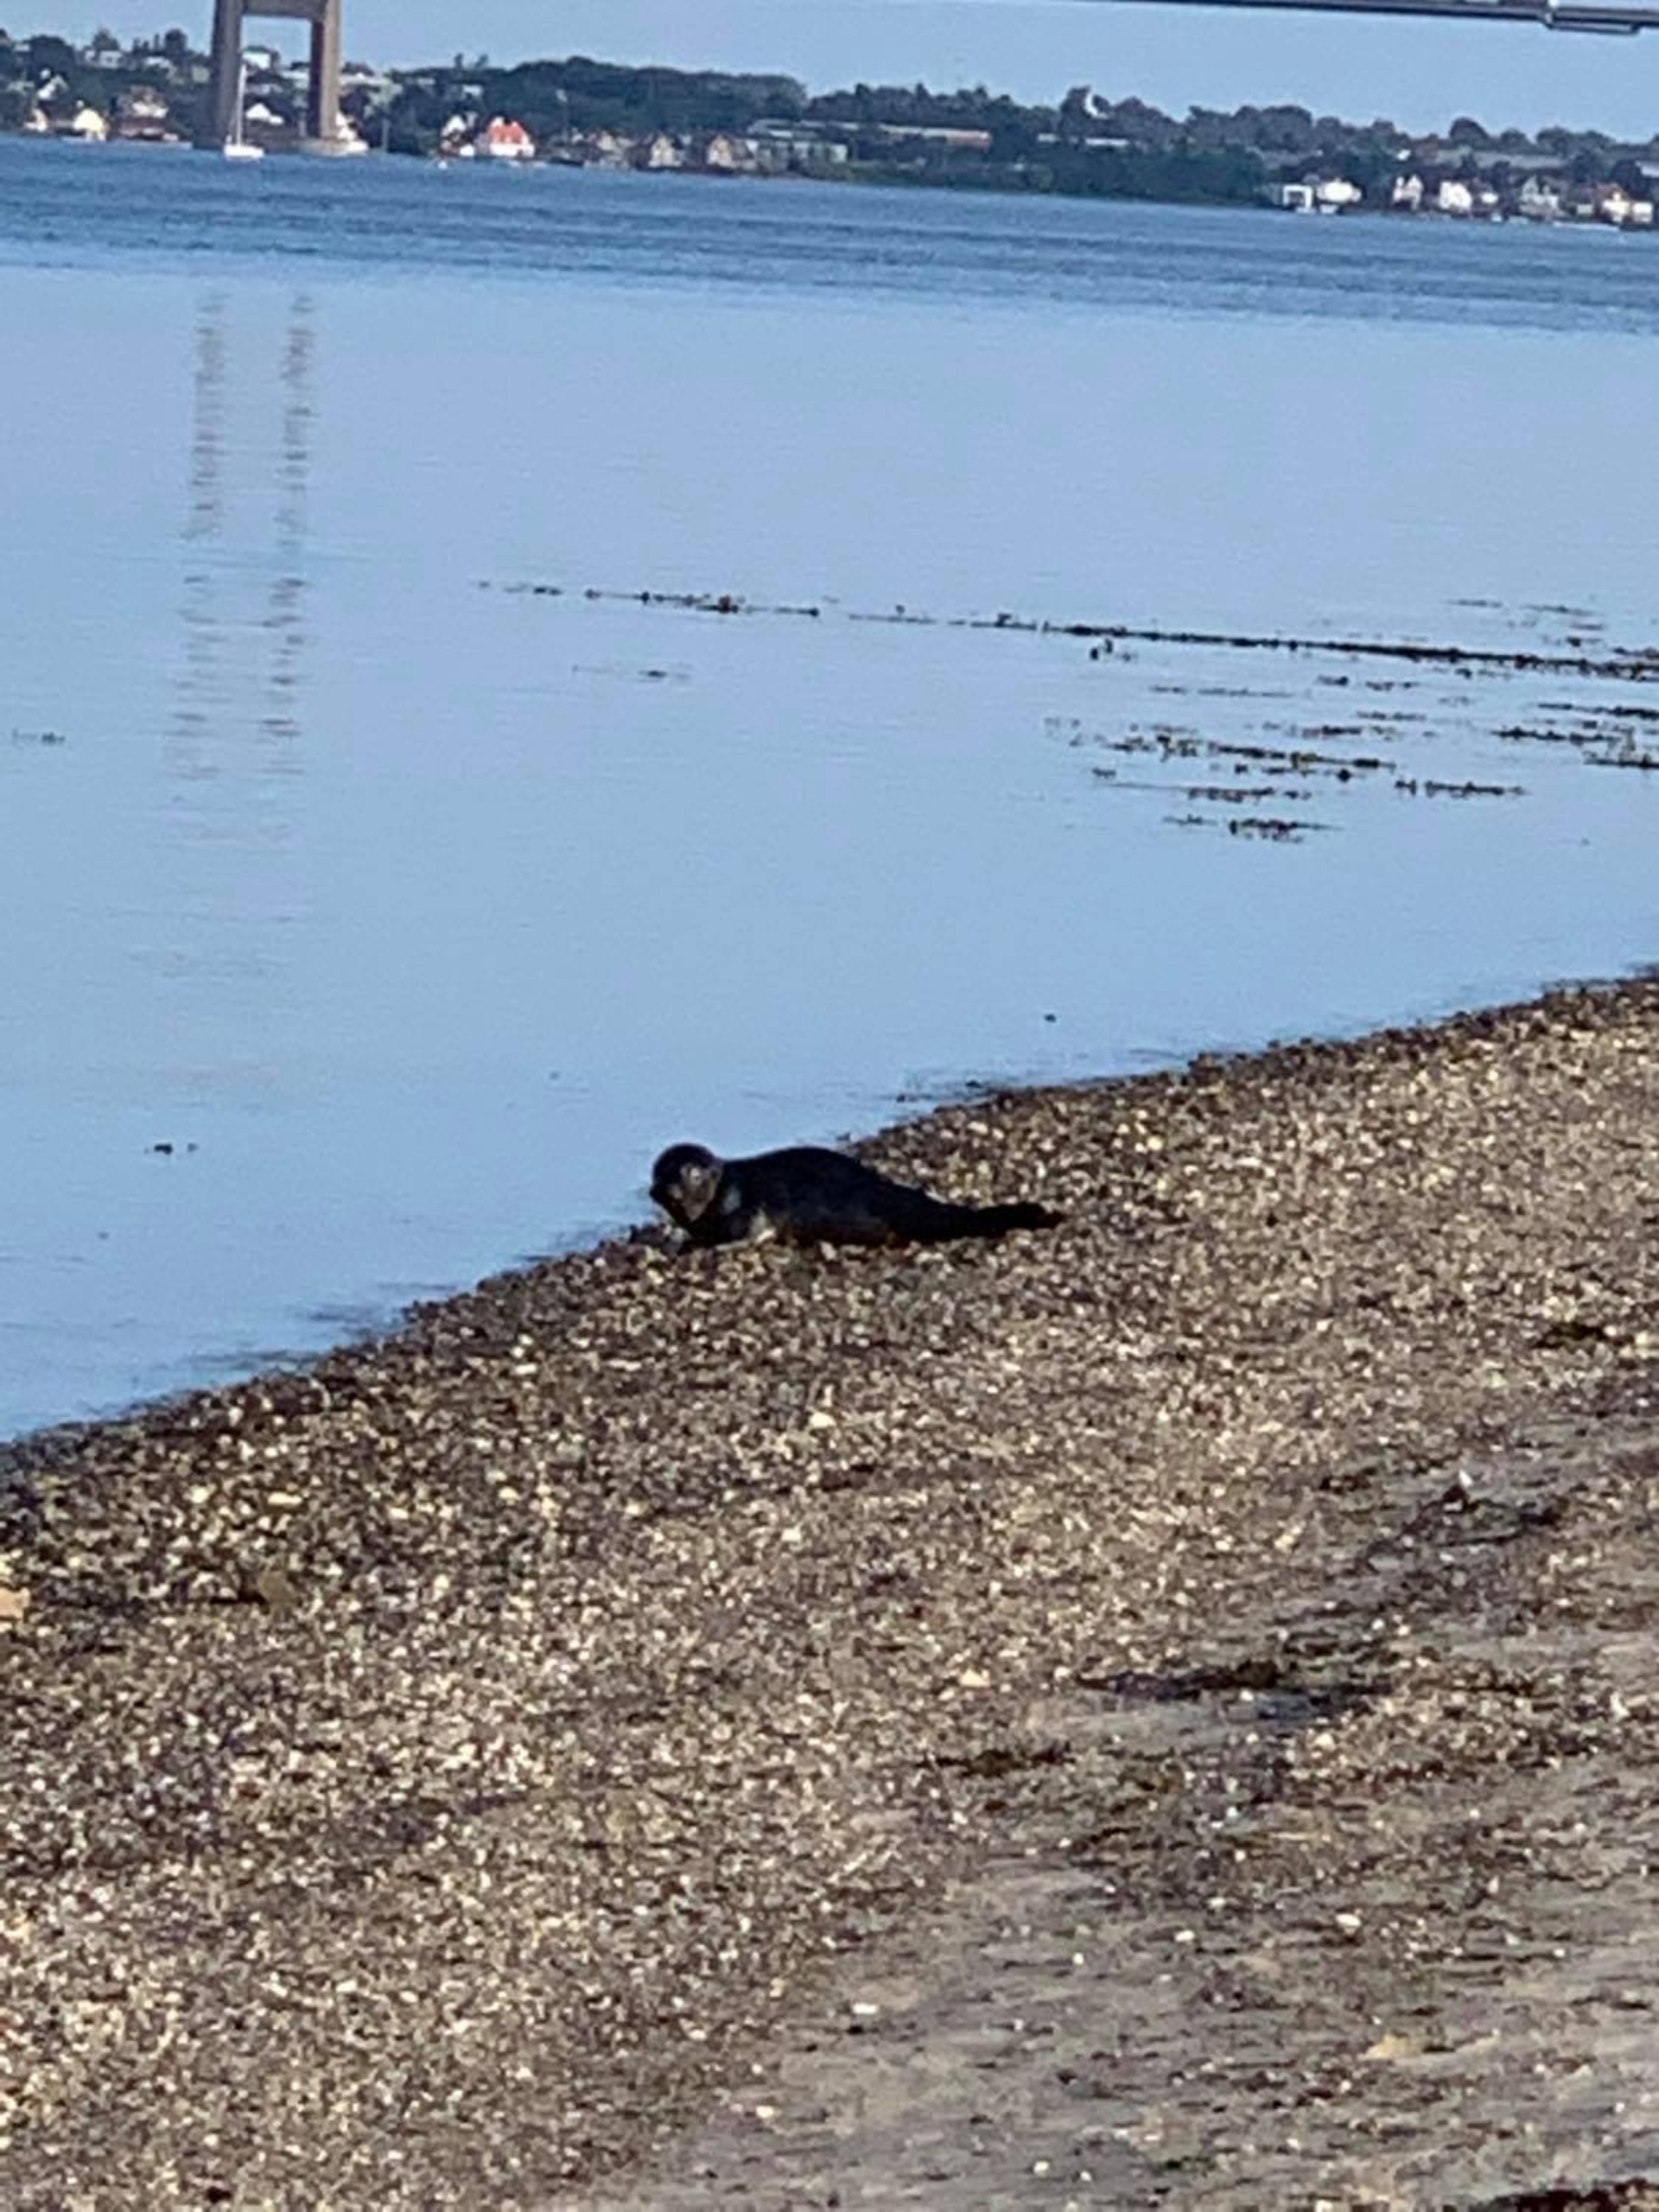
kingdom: Animalia
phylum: Chordata
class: Mammalia
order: Carnivora
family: Phocidae
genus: Phoca
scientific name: Phoca vitulina
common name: Spættet sæl
